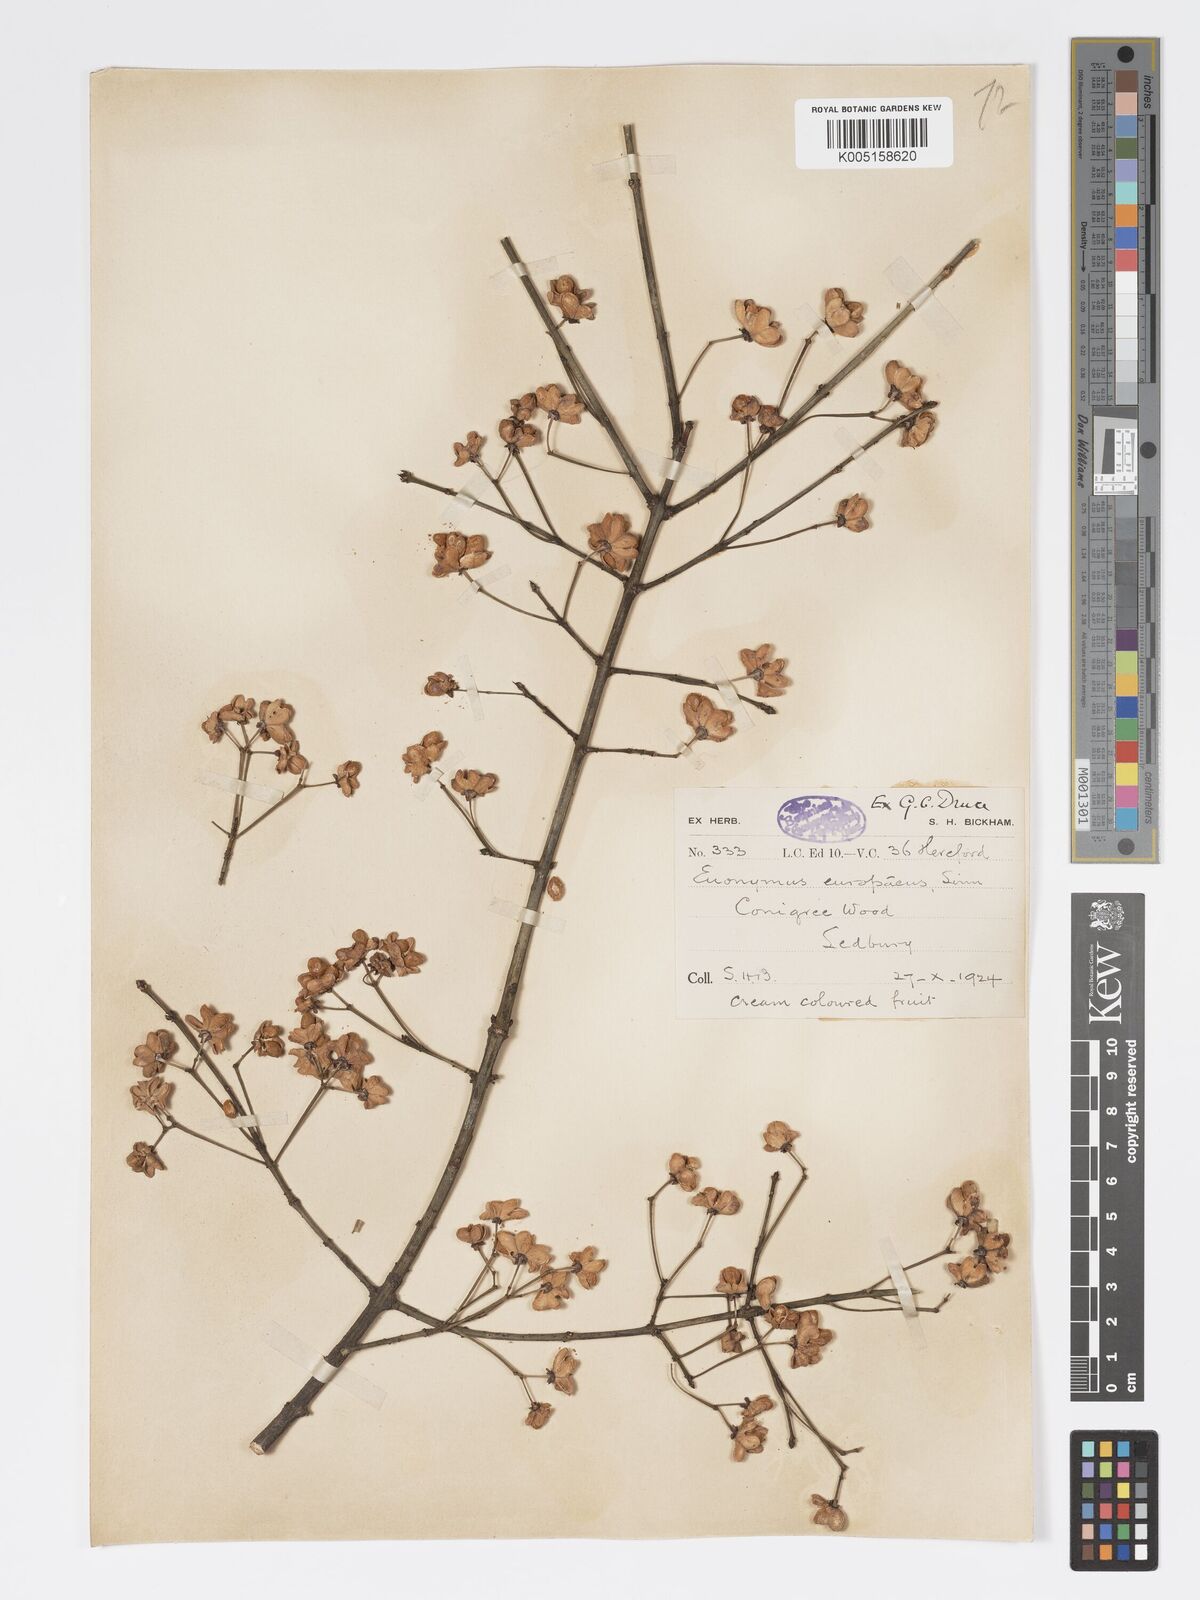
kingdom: Plantae
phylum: Tracheophyta
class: Magnoliopsida
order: Celastrales
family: Celastraceae
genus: Euonymus
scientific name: Euonymus europaeus
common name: Spindle
